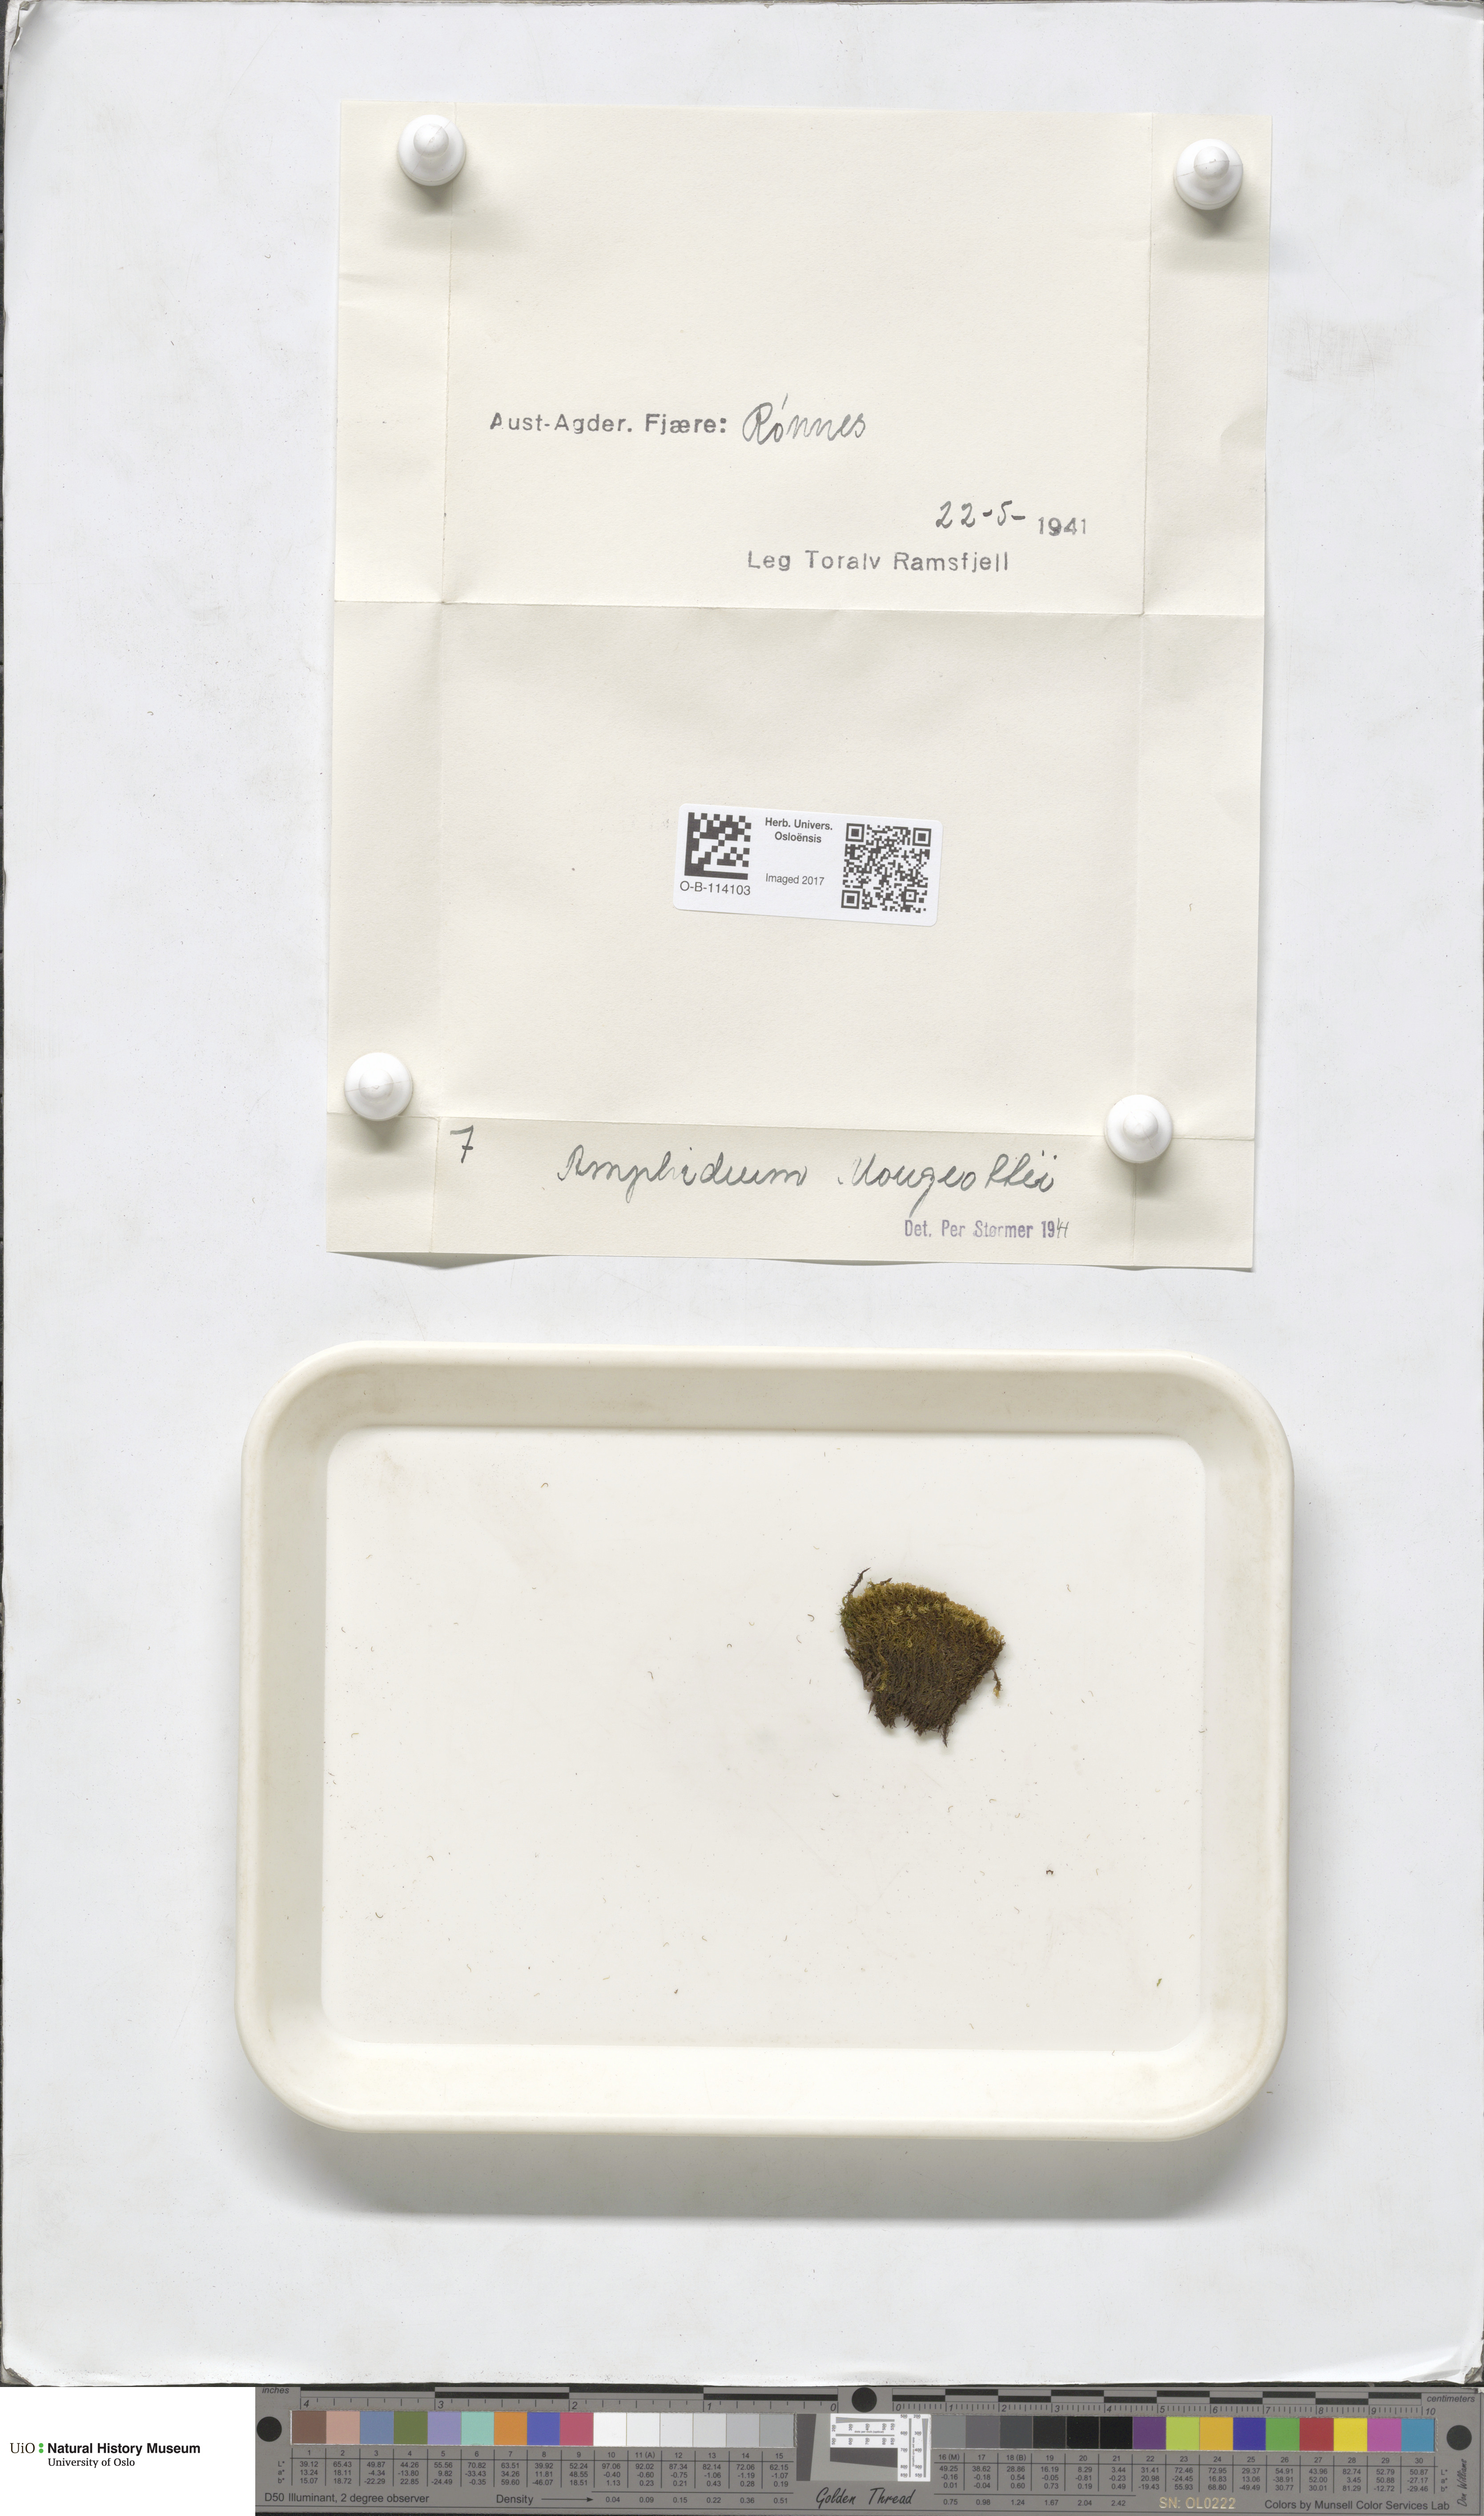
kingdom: Plantae
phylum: Bryophyta
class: Bryopsida
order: Dicranales
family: Amphidiaceae
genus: Amphidium
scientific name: Amphidium mougeotii
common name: Mougeot's yoke moss
